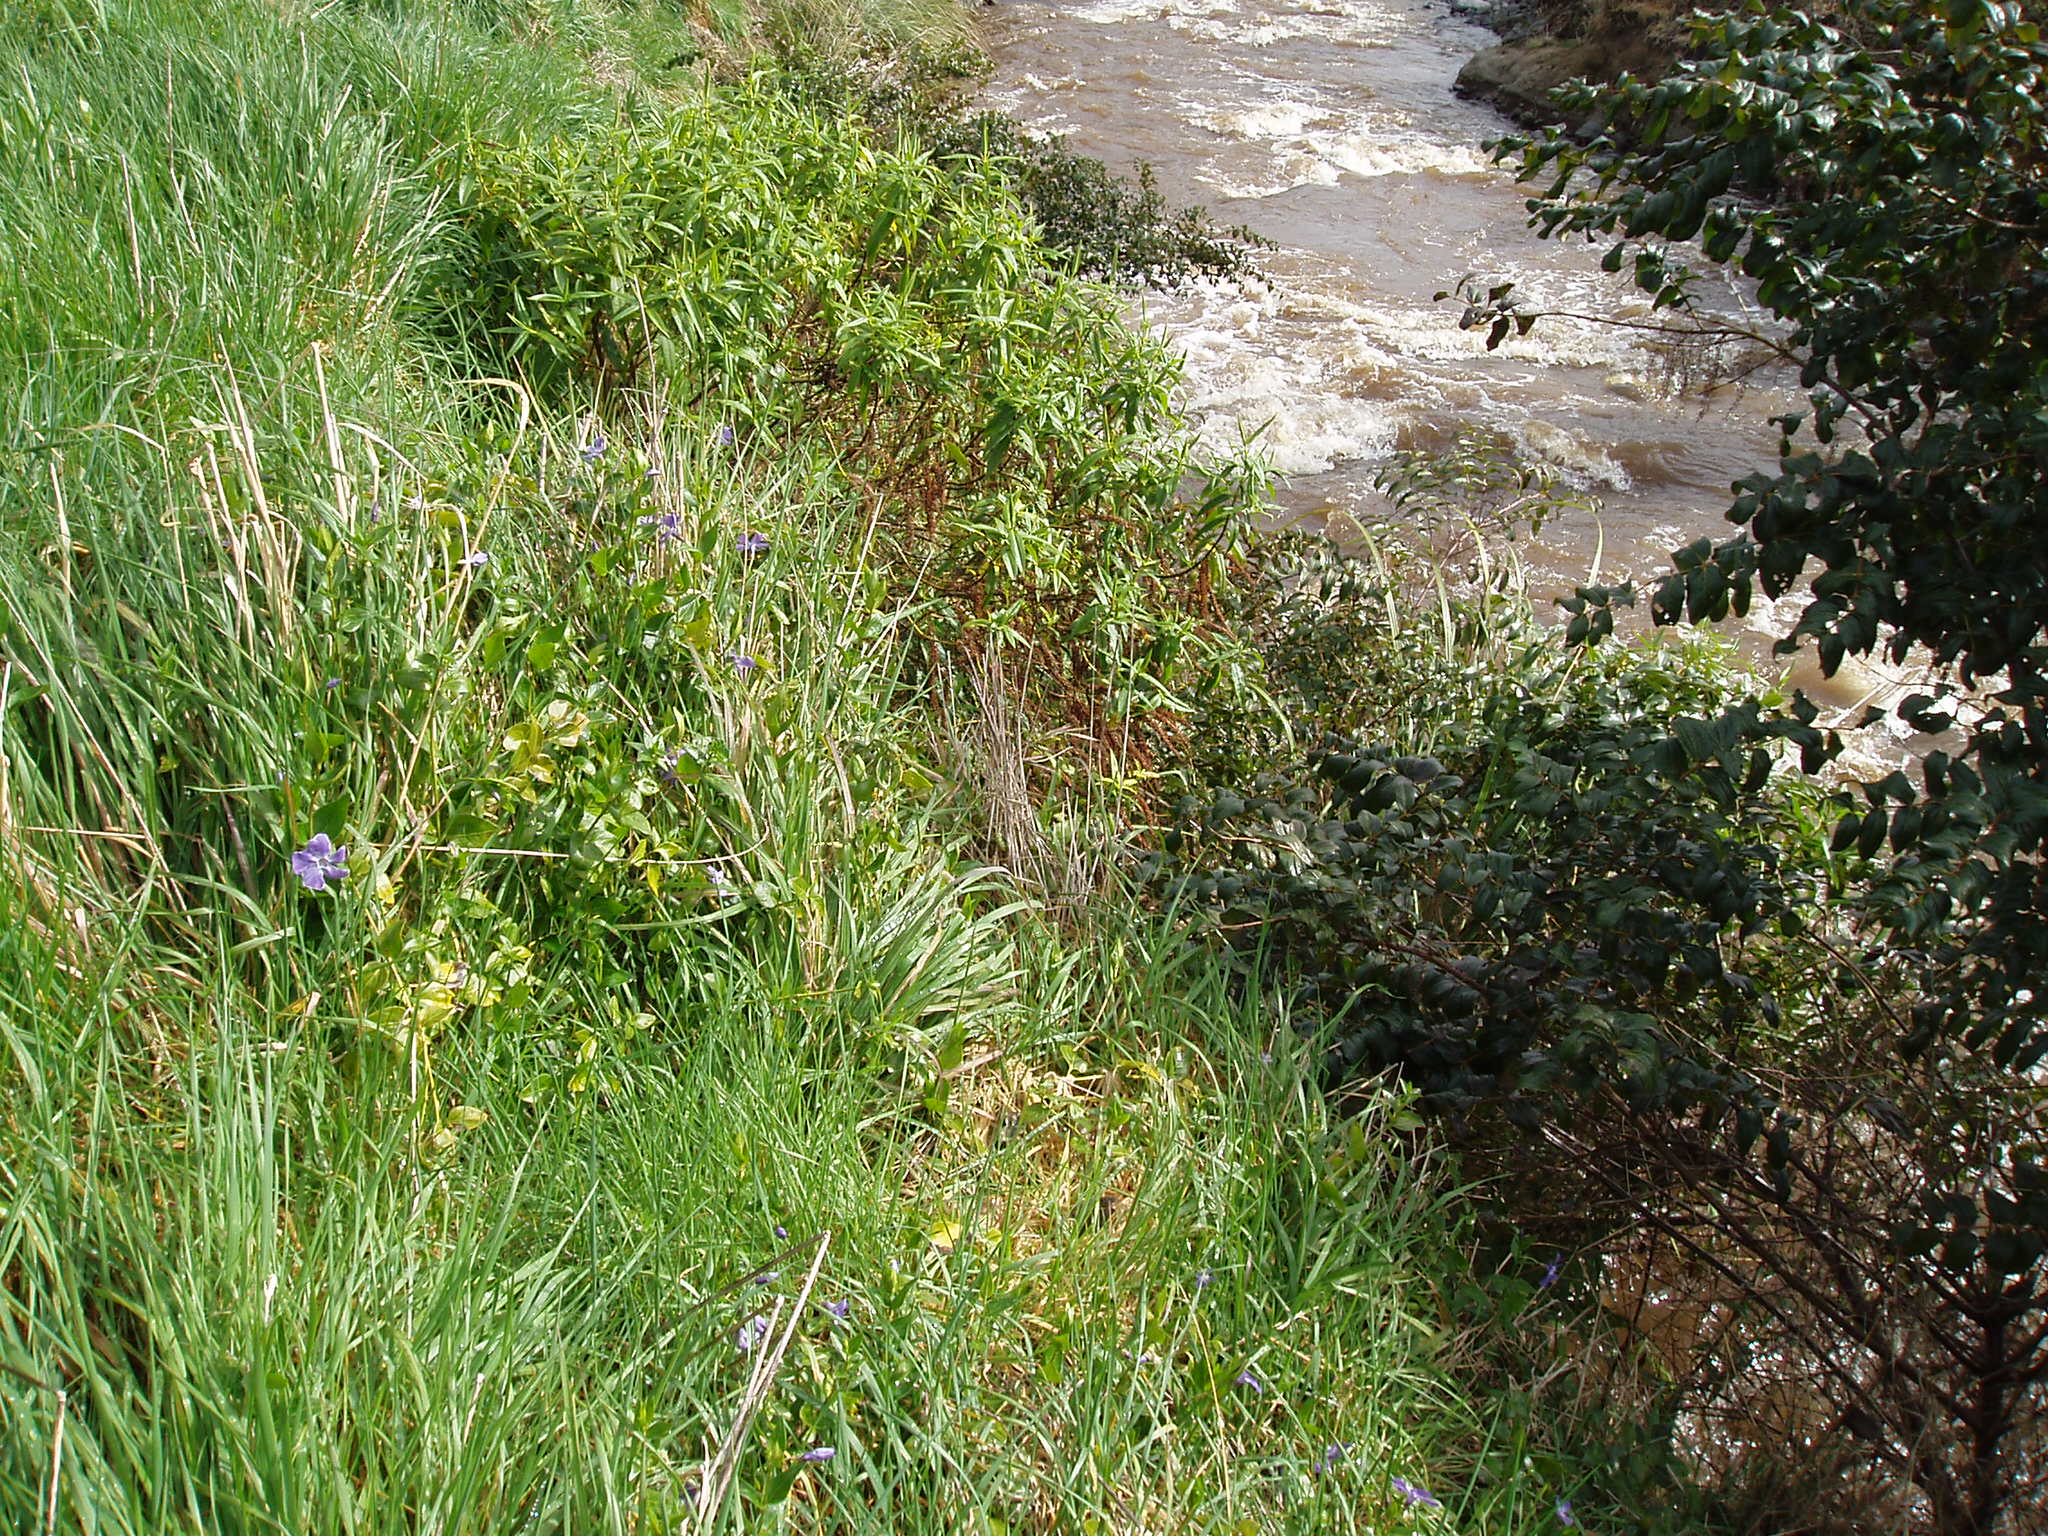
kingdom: Plantae
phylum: Tracheophyta
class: Magnoliopsida
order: Gentianales
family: Apocynaceae
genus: Vinca
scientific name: Vinca major
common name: Greater periwinkle
